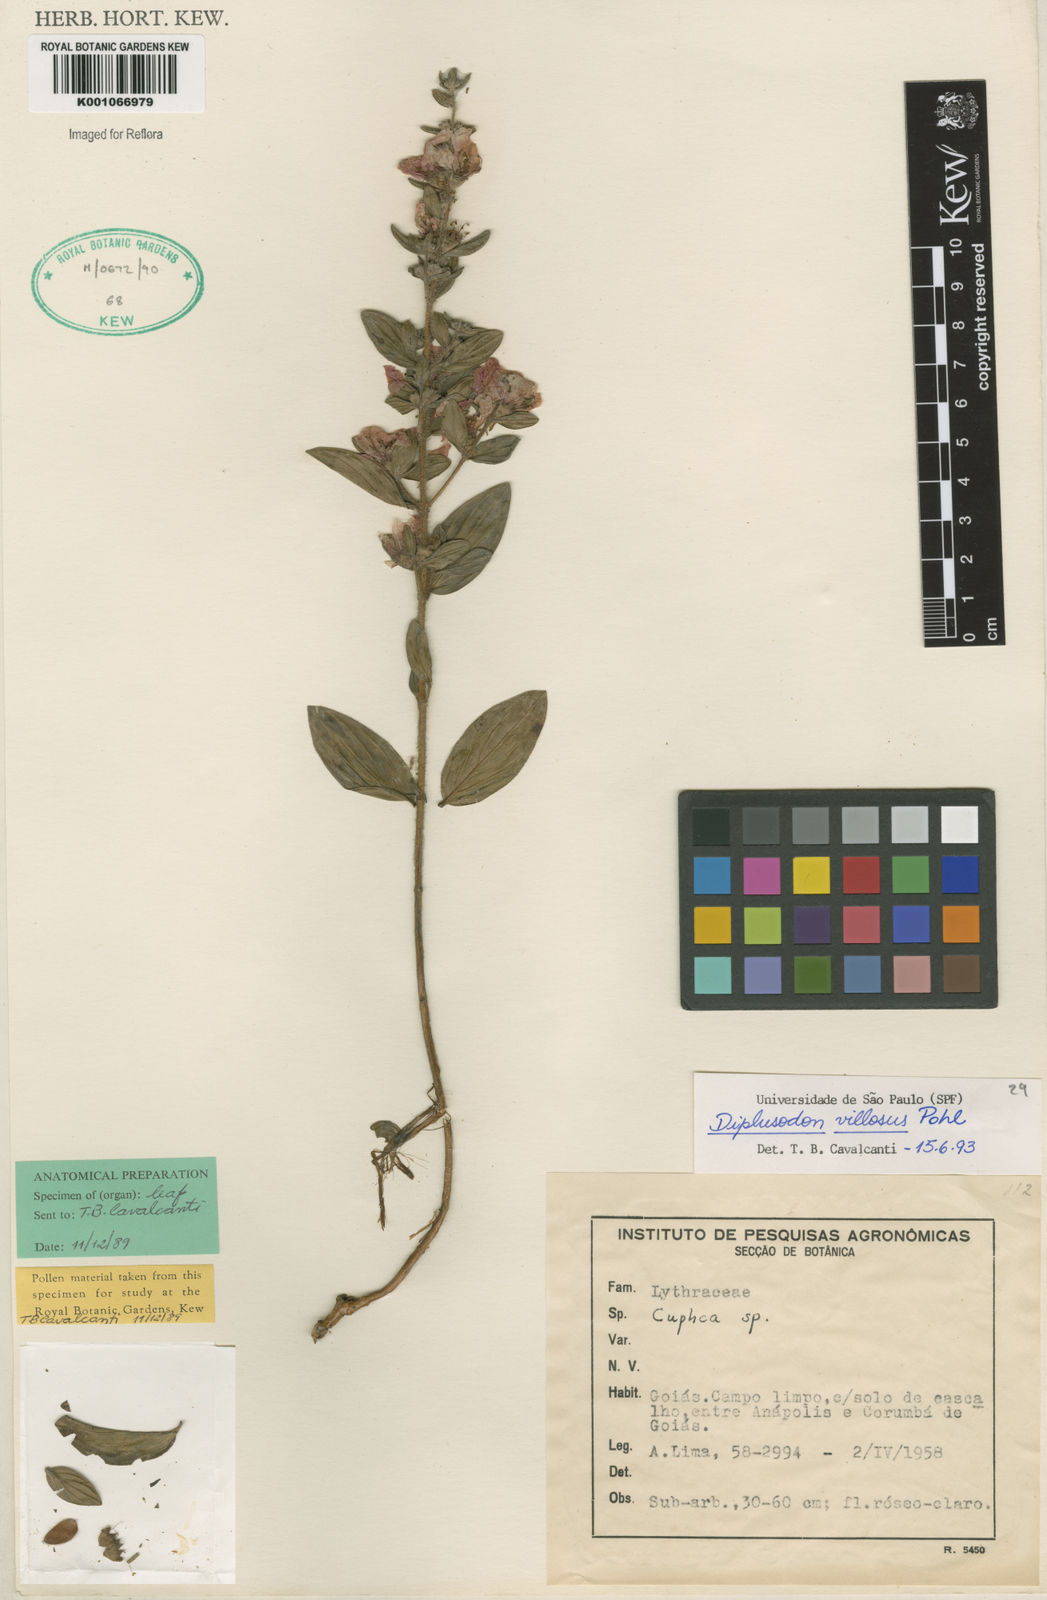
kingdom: Plantae
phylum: Tracheophyta
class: Magnoliopsida
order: Myrtales
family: Lythraceae
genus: Diplusodon
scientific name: Diplusodon villosus
